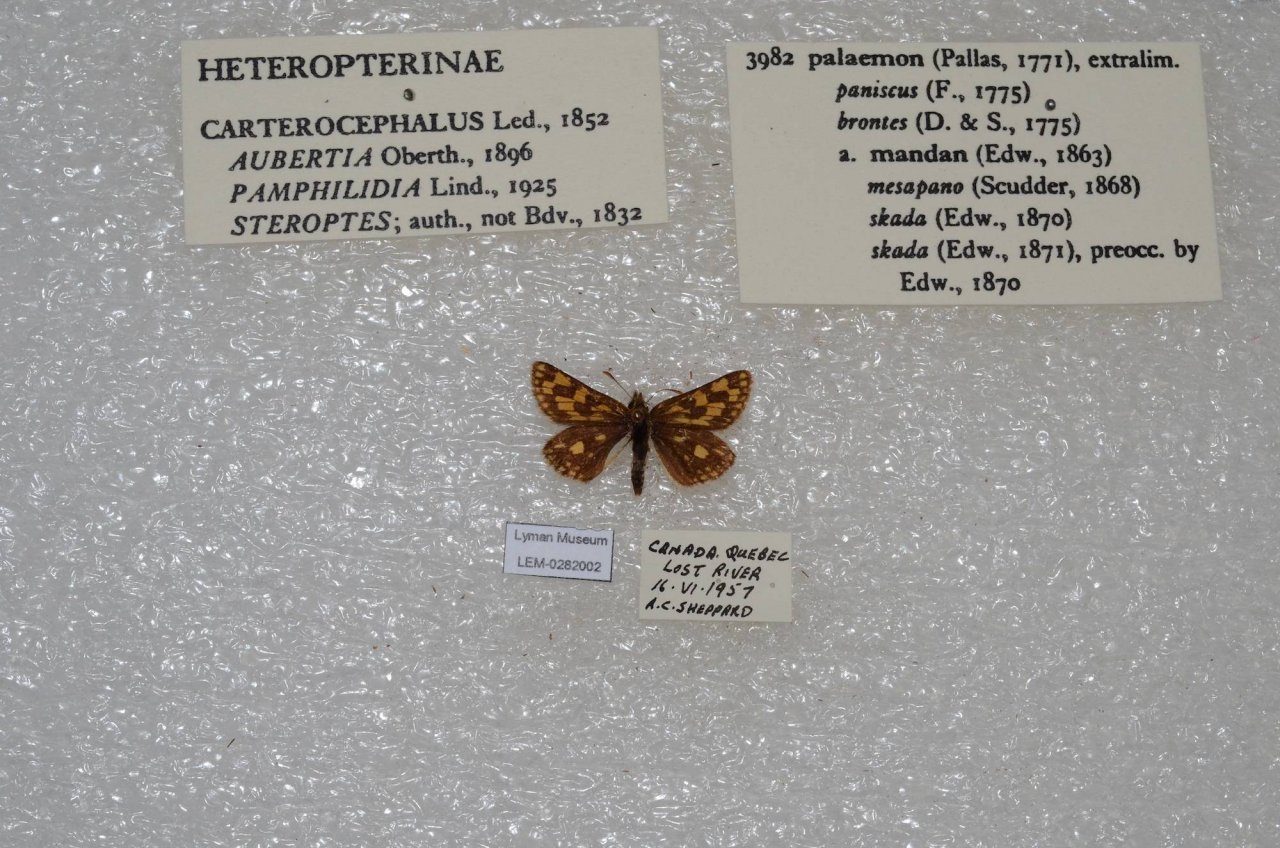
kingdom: Animalia
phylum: Arthropoda
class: Insecta
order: Lepidoptera
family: Hesperiidae
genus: Carterocephalus
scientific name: Carterocephalus palaemon
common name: Chequered Skipper
